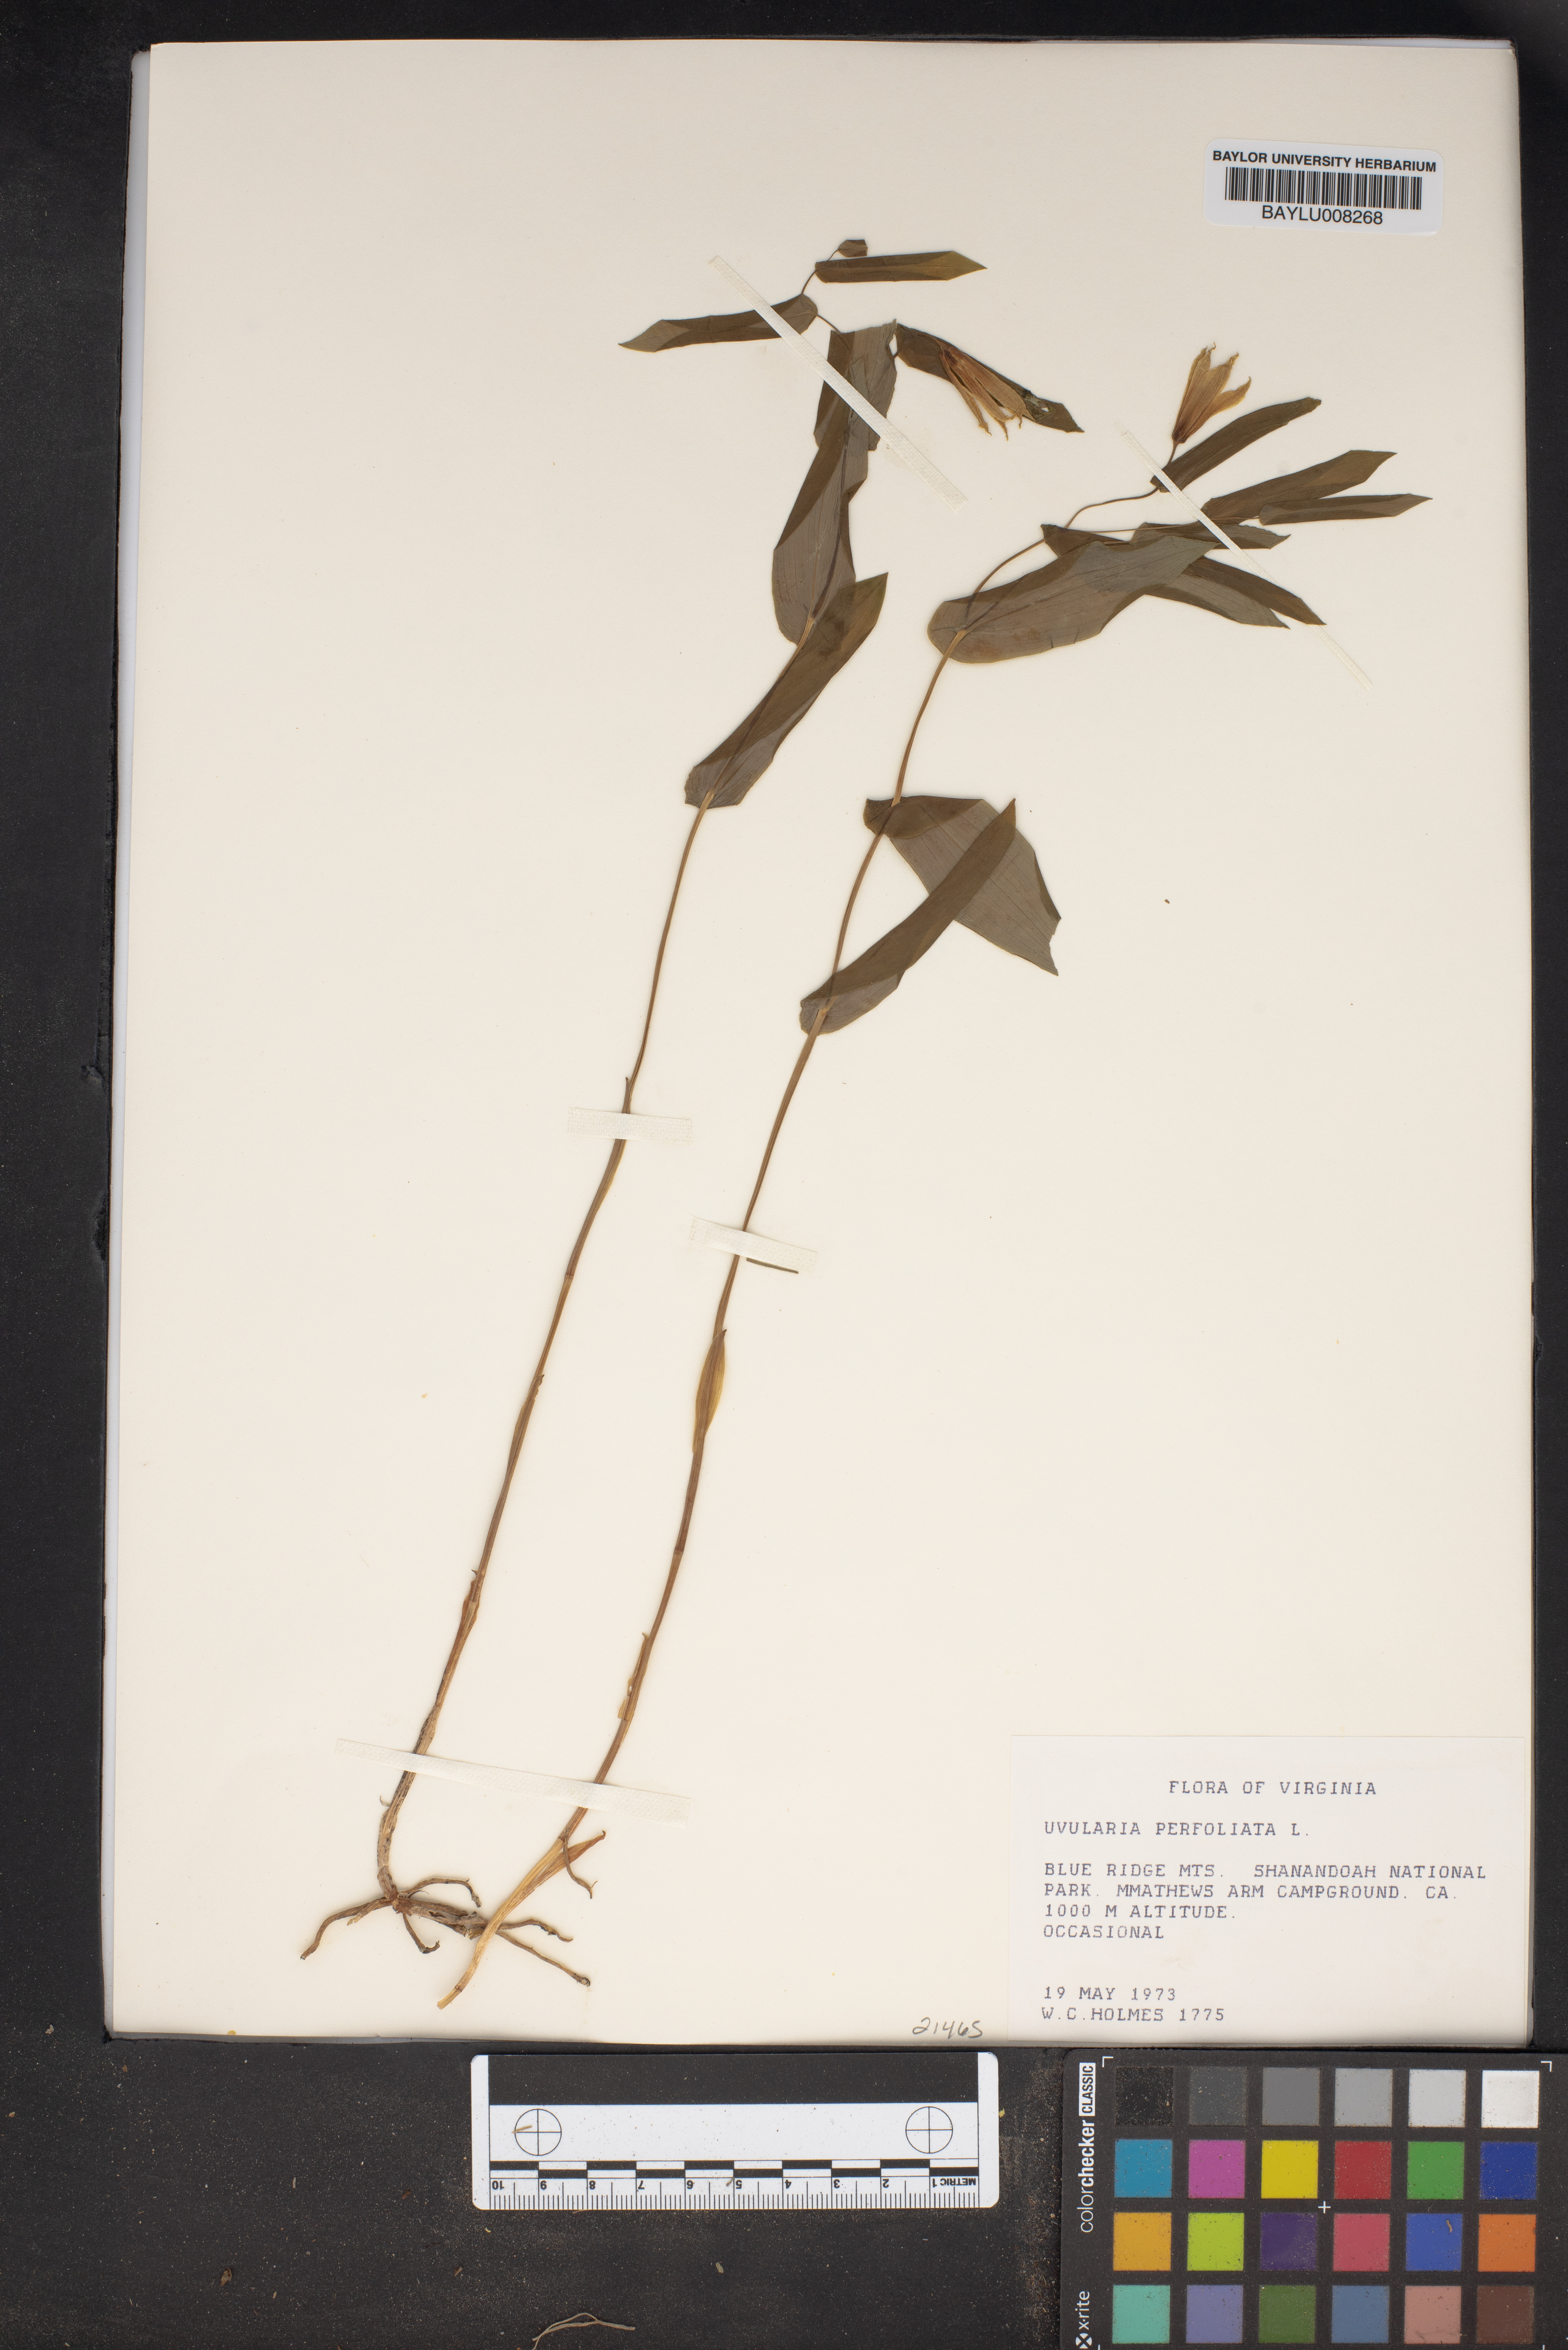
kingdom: Plantae
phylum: Tracheophyta
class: Liliopsida
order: Liliales
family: Colchicaceae
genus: Uvularia
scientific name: Uvularia perfoliata
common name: Perfoliate bellwort
